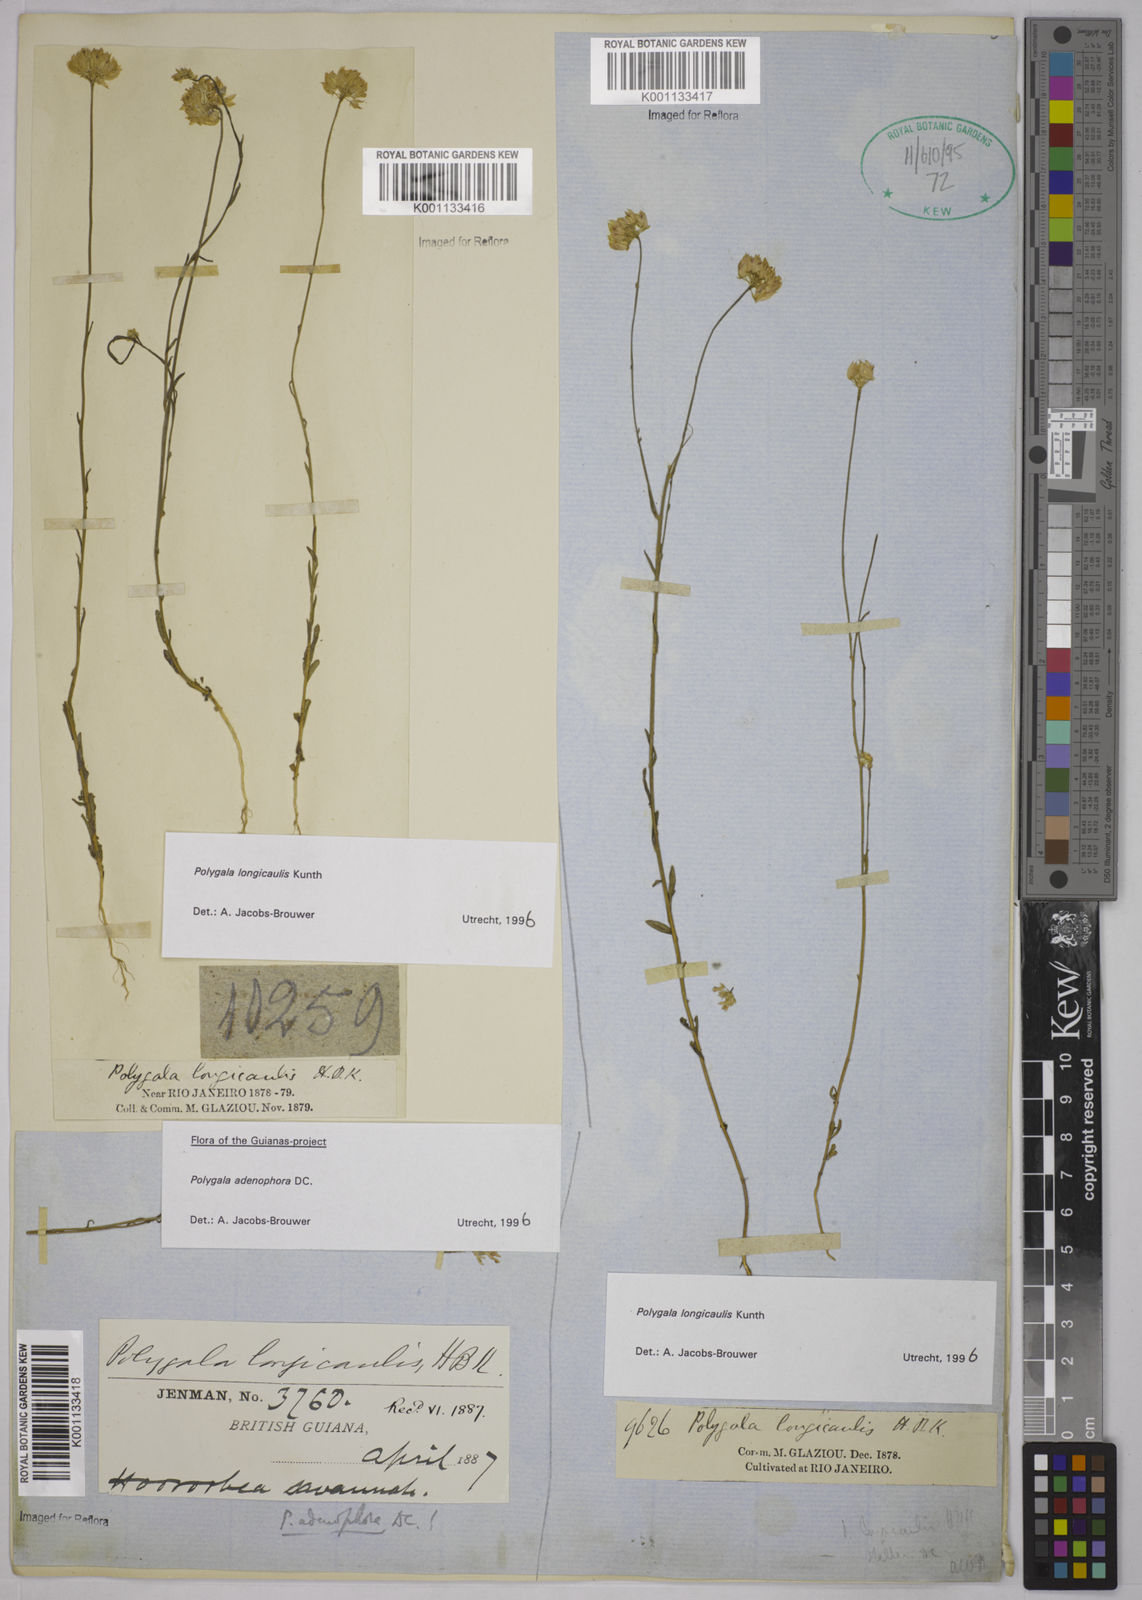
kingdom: Plantae
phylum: Tracheophyta
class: Magnoliopsida
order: Fabales
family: Polygalaceae
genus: Polygala
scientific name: Polygala longicaulis
